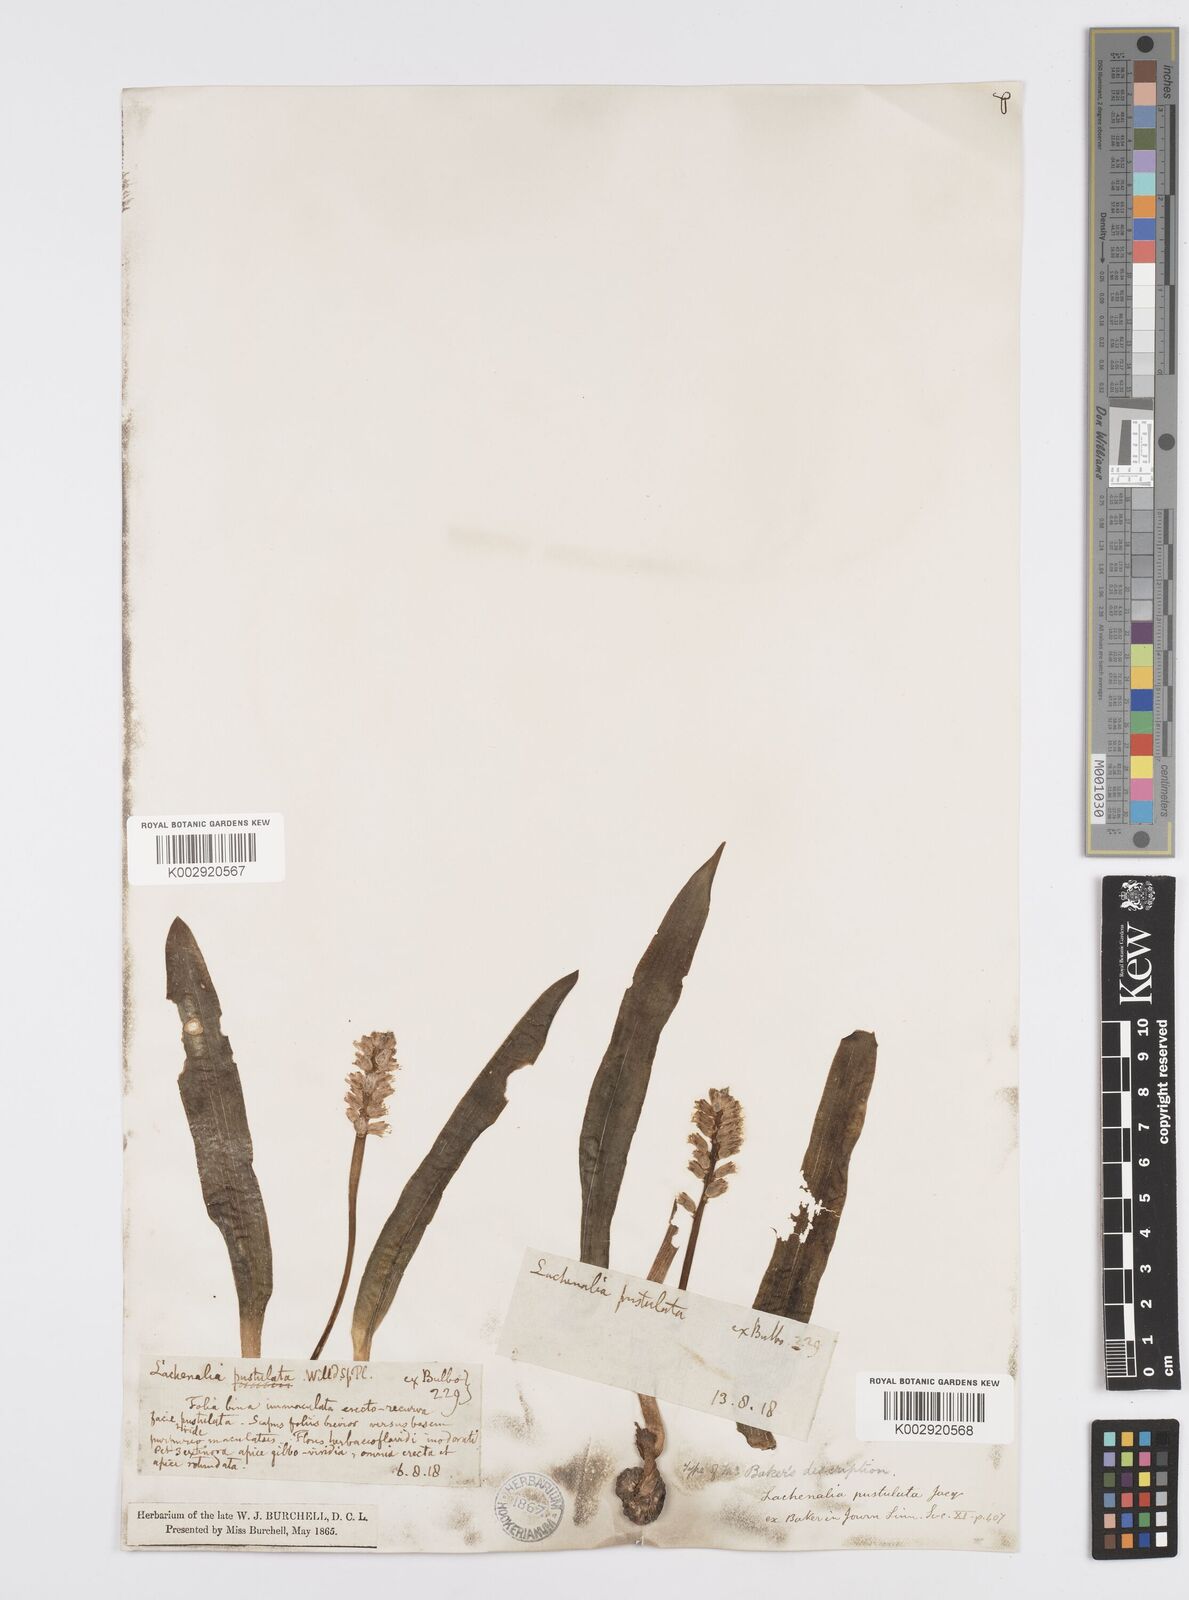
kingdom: Plantae
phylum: Tracheophyta
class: Liliopsida
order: Asparagales
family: Asparagaceae
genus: Lachenalia
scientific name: Lachenalia pallida
